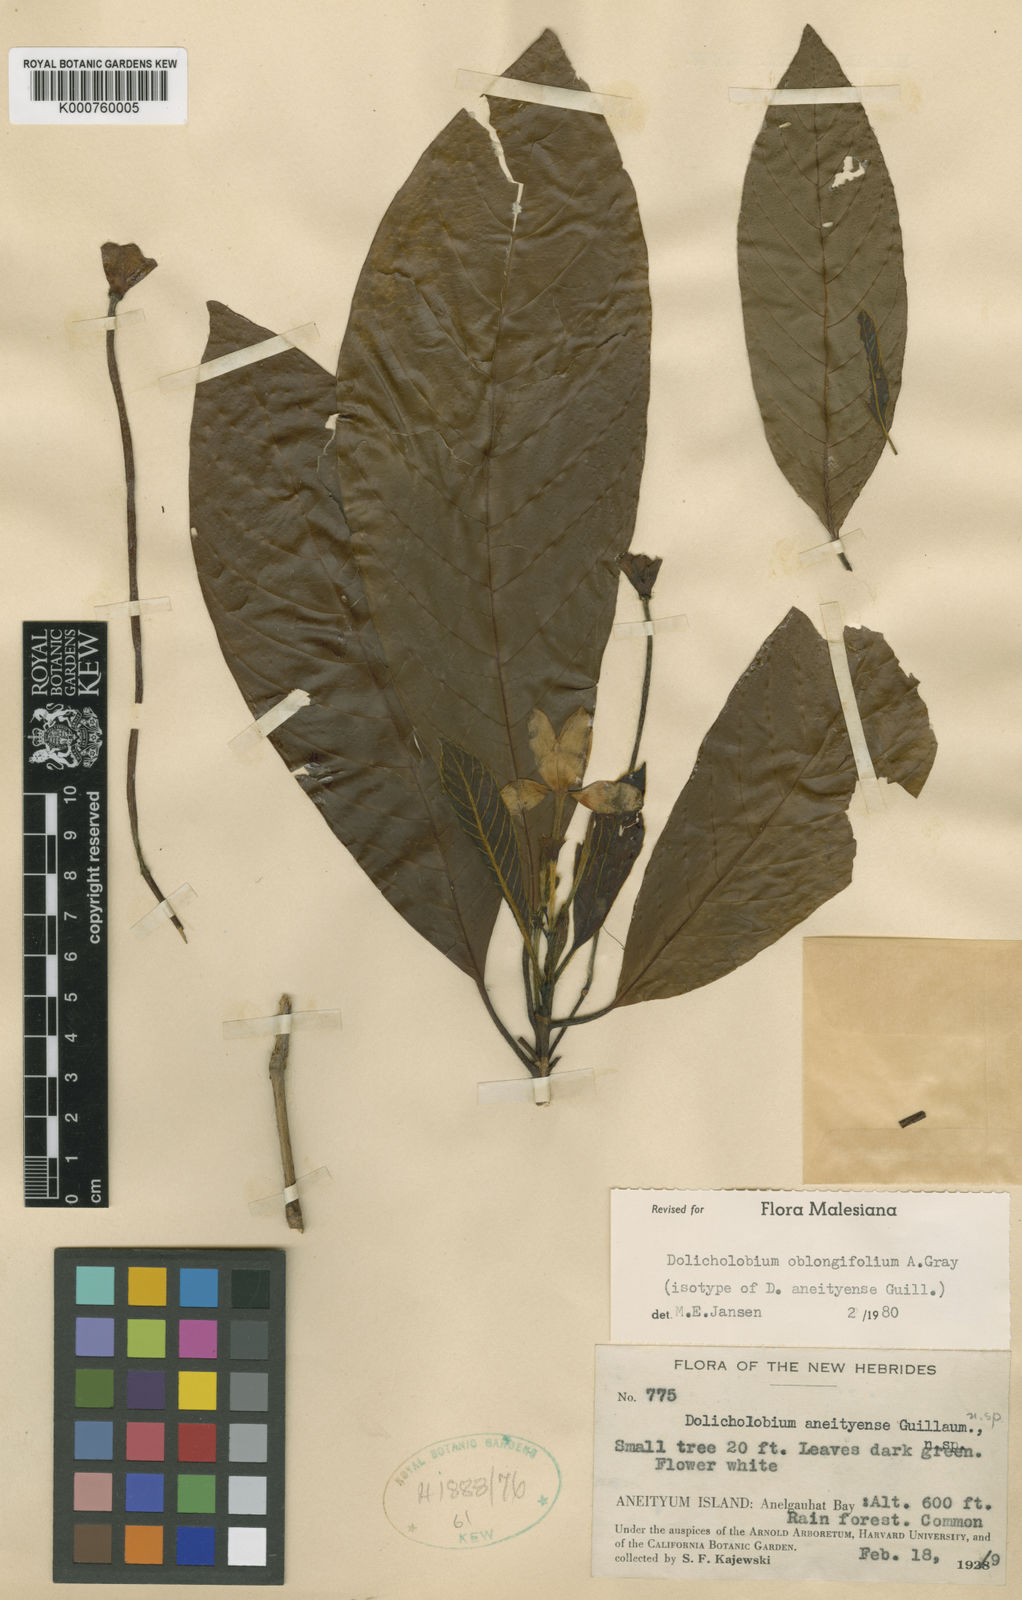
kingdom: Plantae
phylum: Tracheophyta
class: Magnoliopsida
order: Gentianales
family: Rubiaceae
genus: Dolicholobium
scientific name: Dolicholobium oblongifolium
